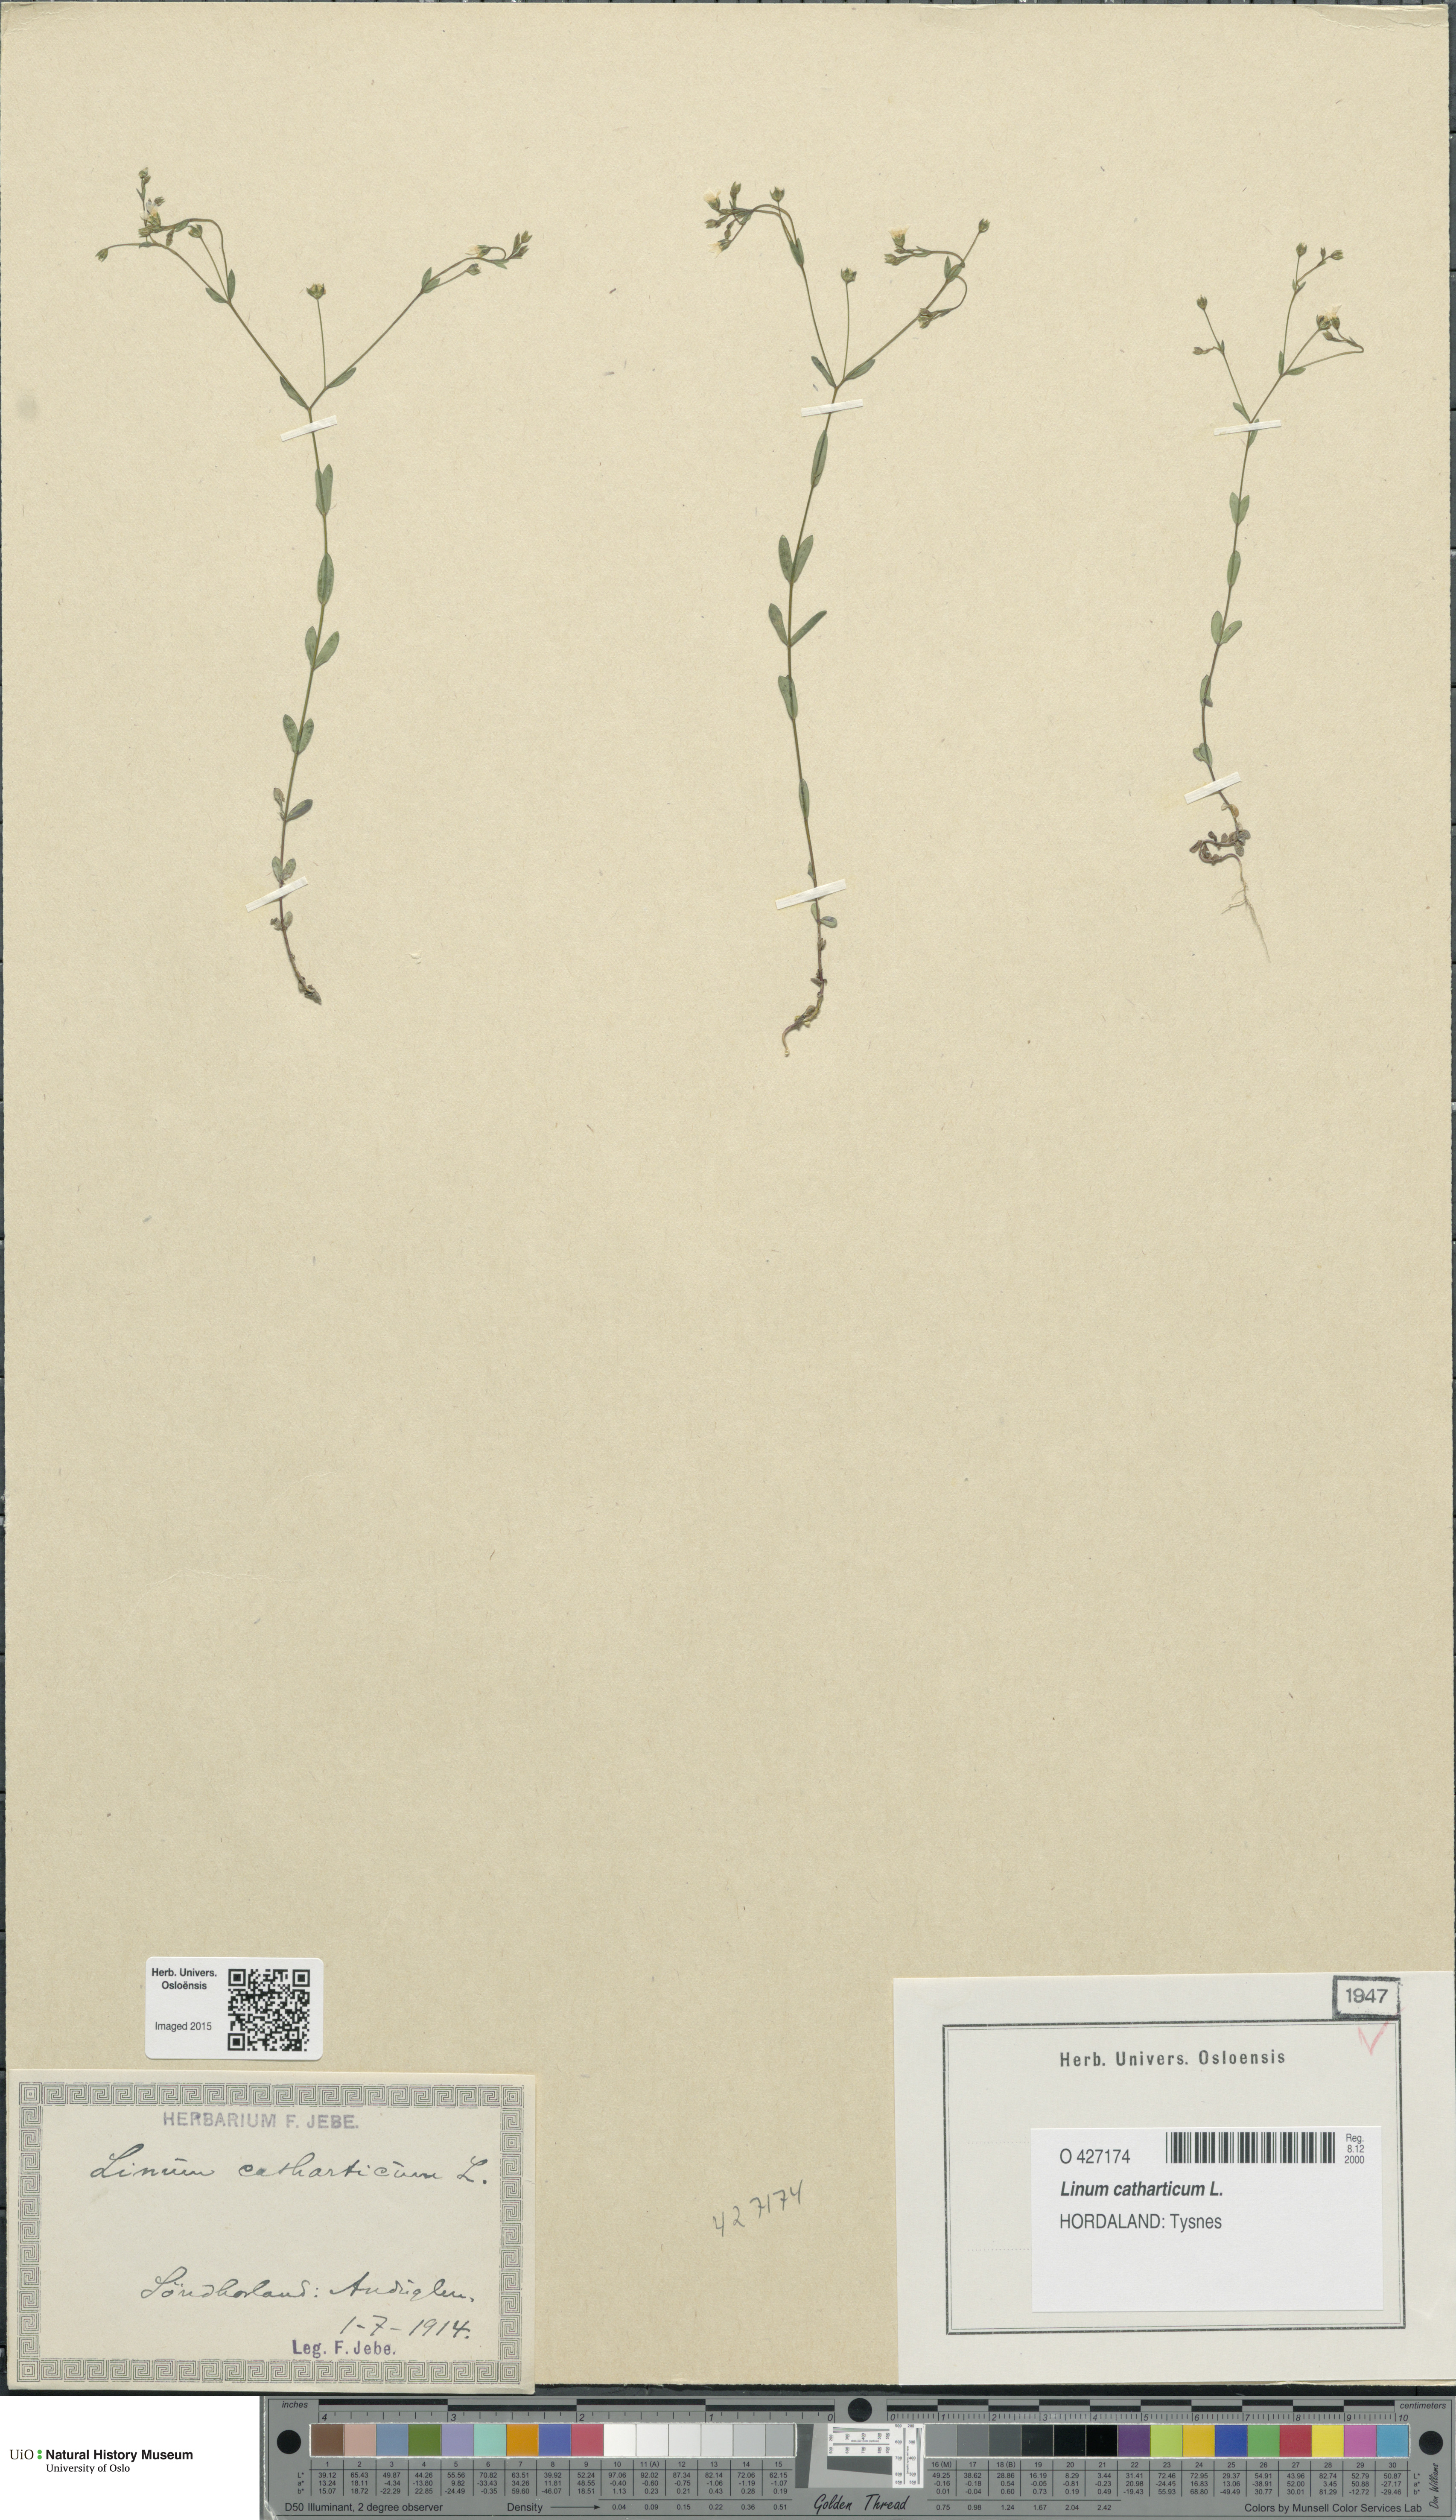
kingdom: Plantae
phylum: Tracheophyta
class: Magnoliopsida
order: Malpighiales
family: Linaceae
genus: Linum
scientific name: Linum catharticum
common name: Fairy flax
